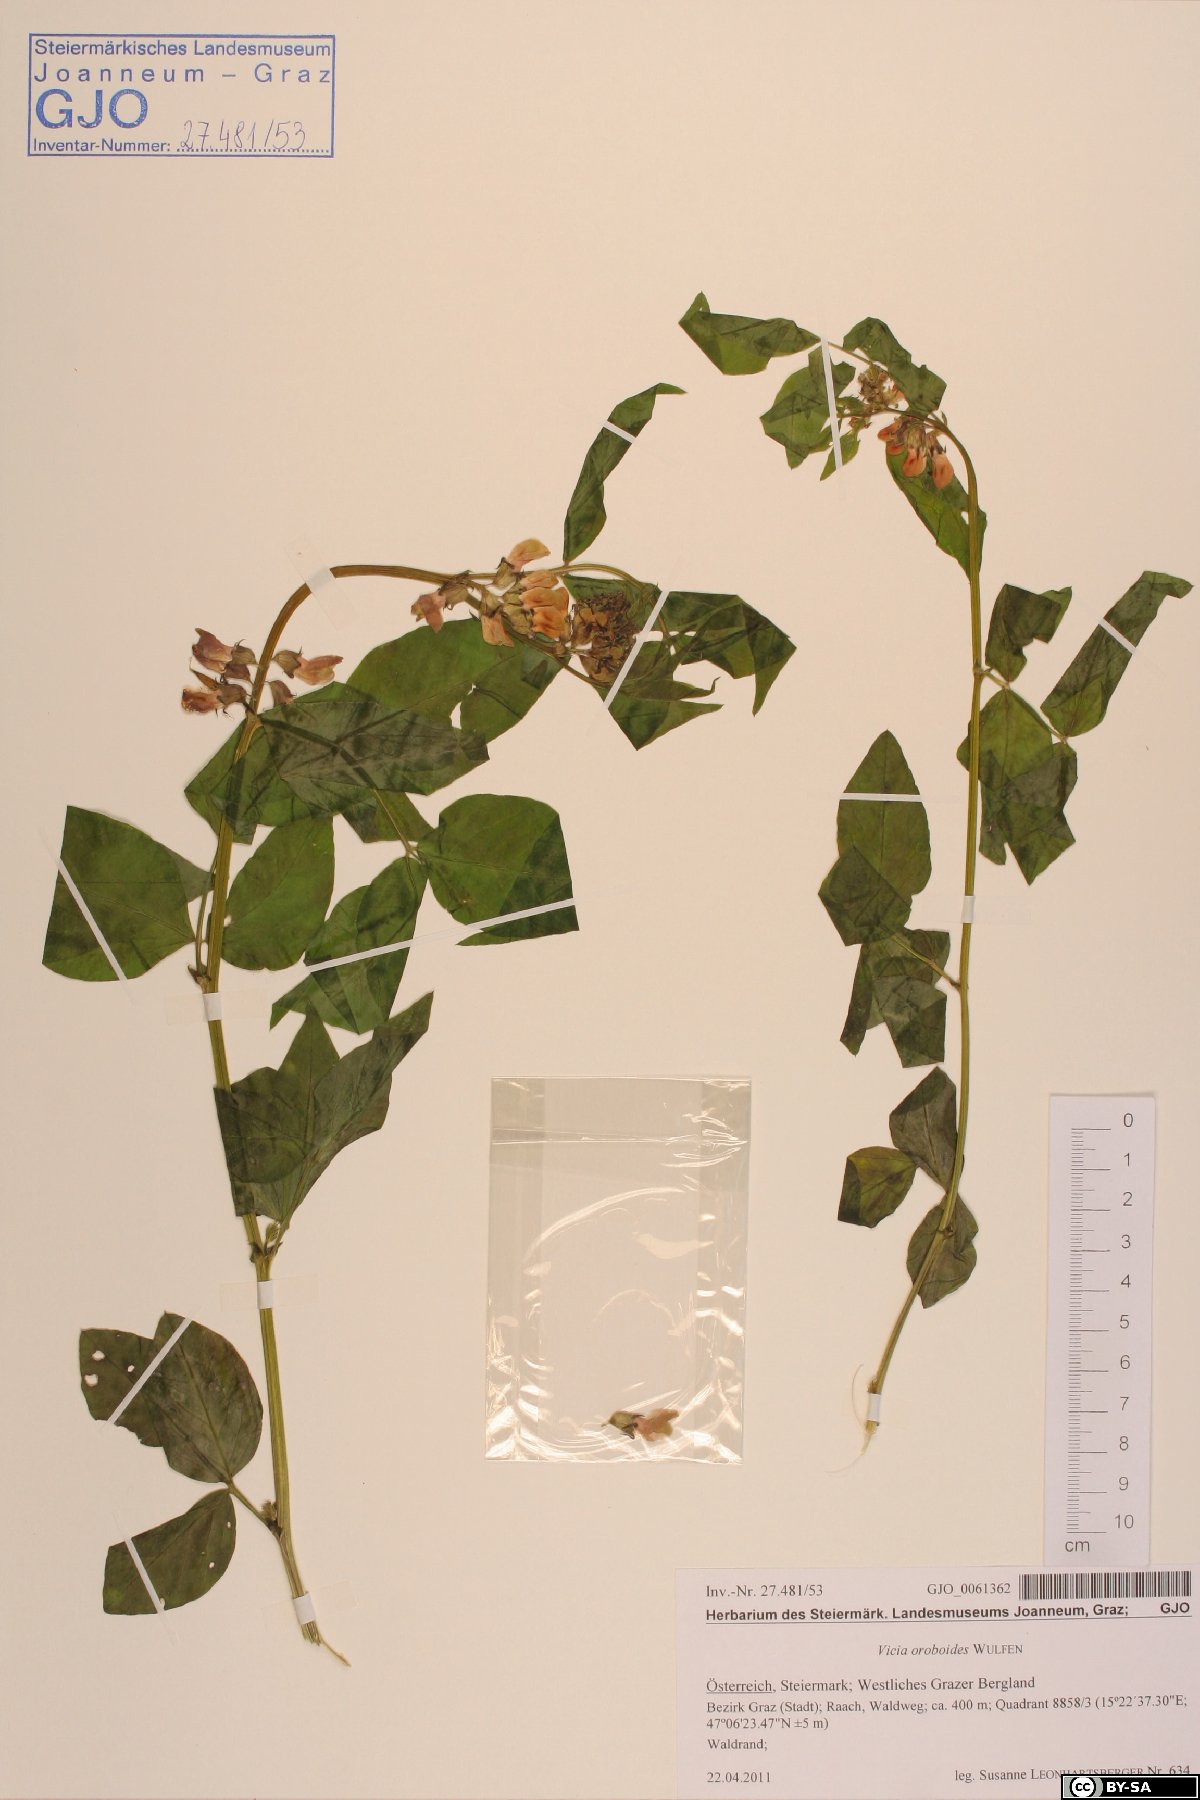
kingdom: Plantae
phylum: Tracheophyta
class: Magnoliopsida
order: Fabales
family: Fabaceae
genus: Vicia
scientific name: Vicia oroboides
